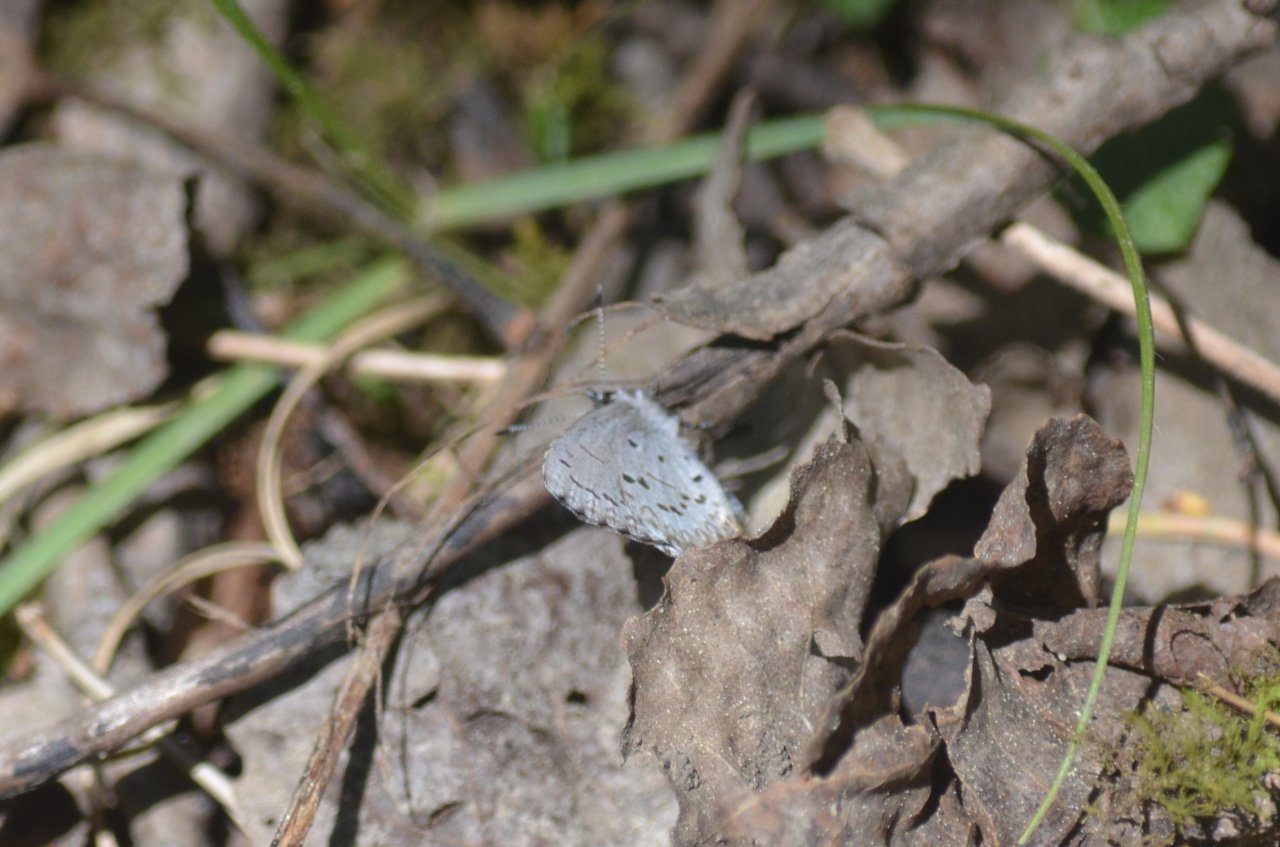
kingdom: Animalia
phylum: Arthropoda
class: Insecta
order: Lepidoptera
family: Lycaenidae
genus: Celastrina
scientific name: Celastrina lucia
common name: Northern Spring Azure
